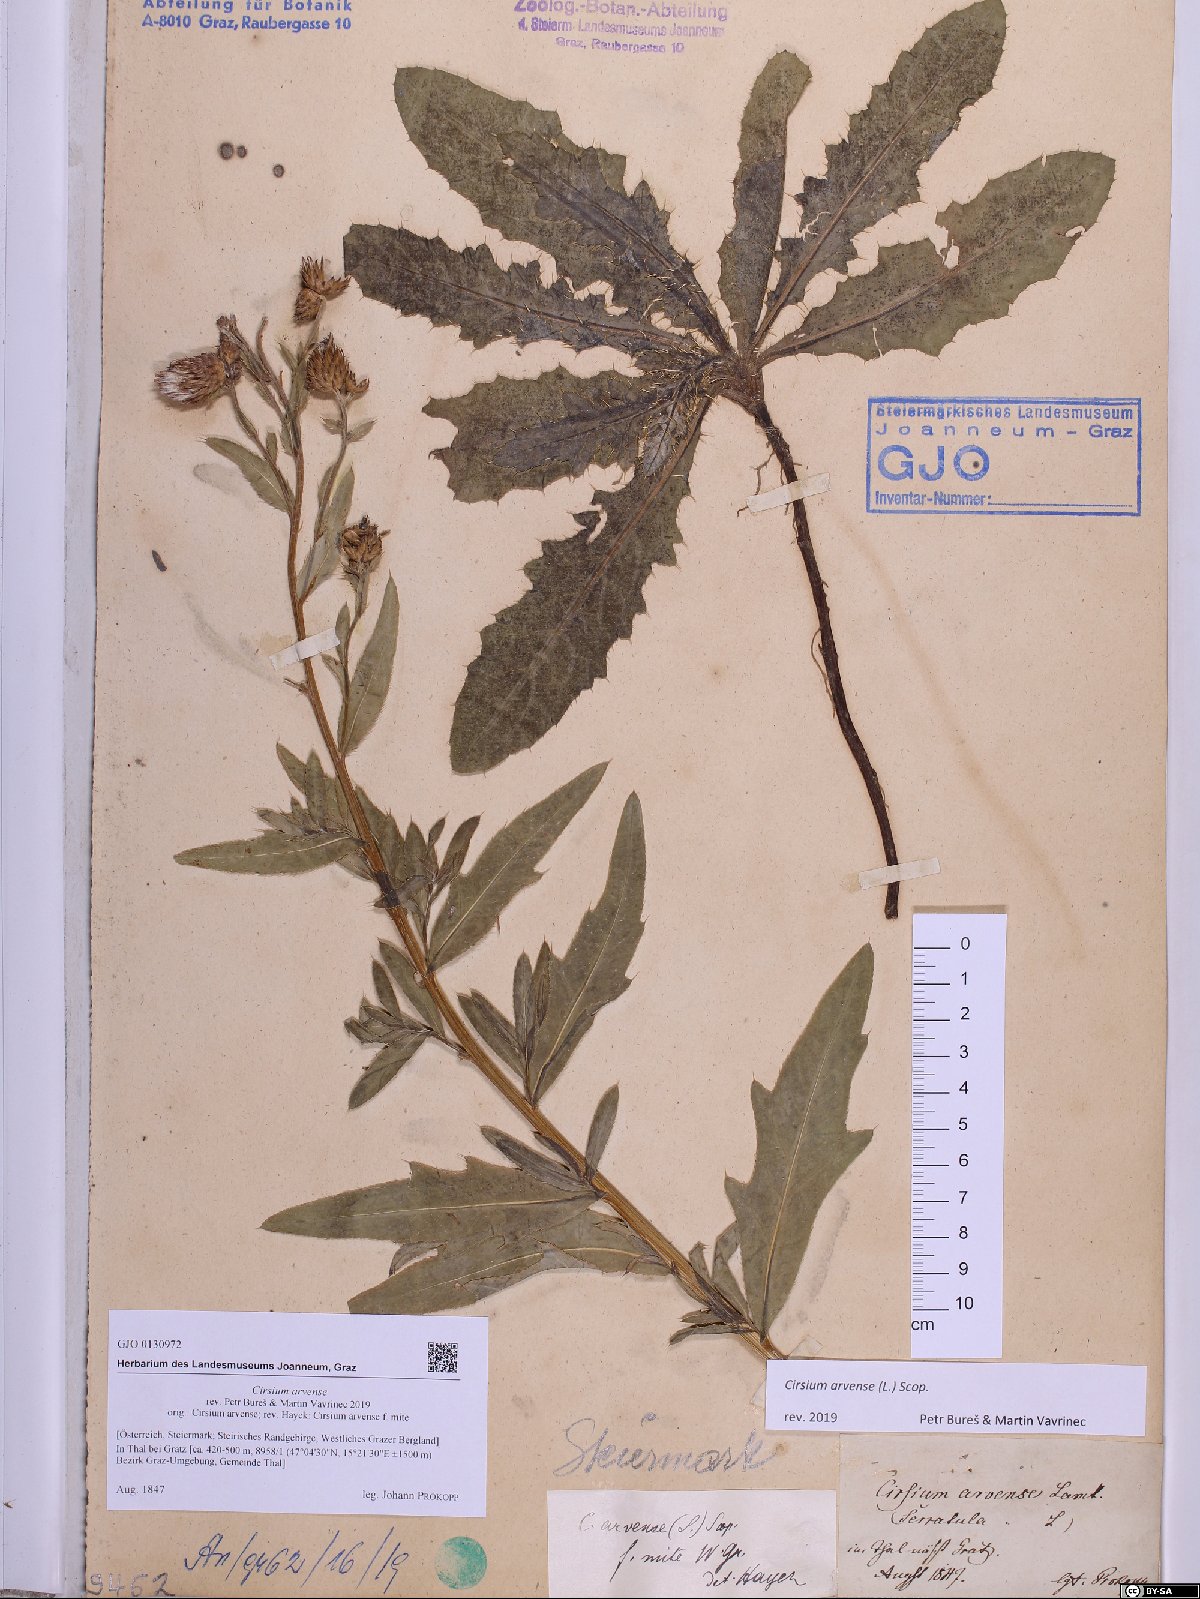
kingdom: Plantae
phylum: Tracheophyta
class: Magnoliopsida
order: Asterales
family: Asteraceae
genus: Cirsium
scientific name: Cirsium arvense
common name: Creeping thistle
